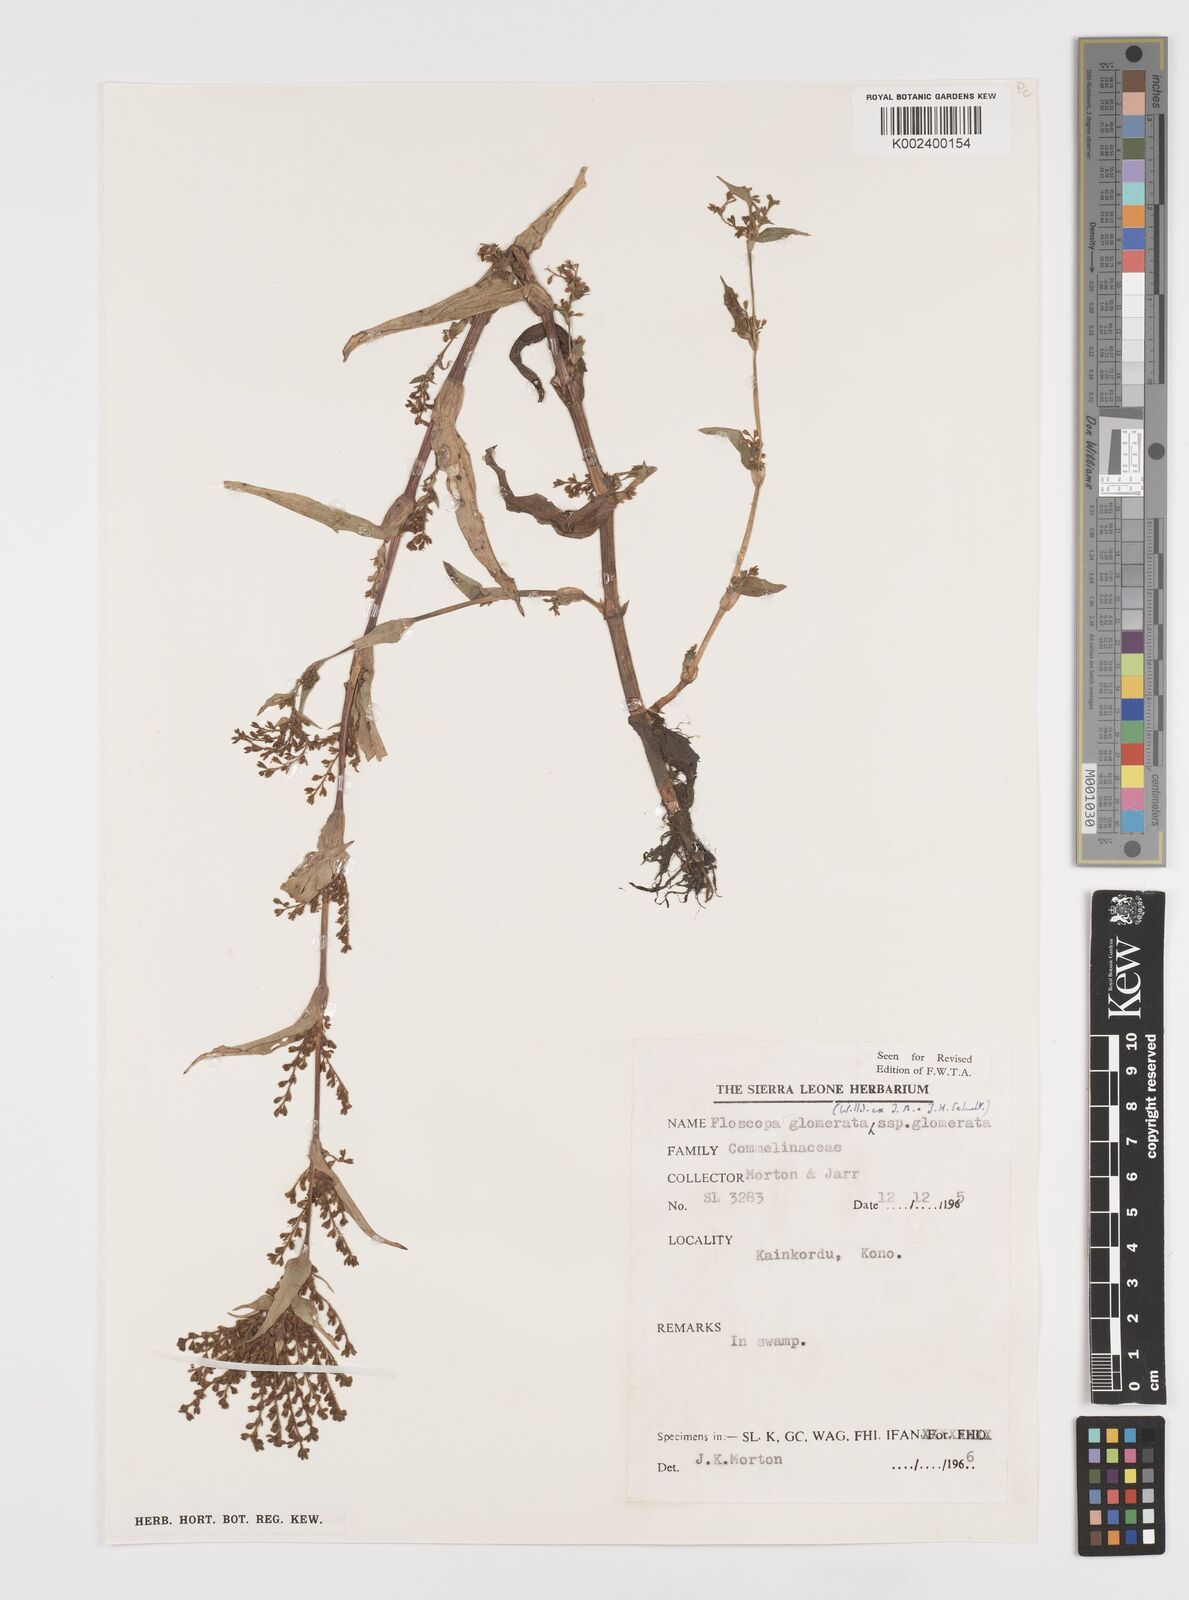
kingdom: Plantae
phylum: Tracheophyta
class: Liliopsida
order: Commelinales
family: Commelinaceae
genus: Floscopa
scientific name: Floscopa glomerata
